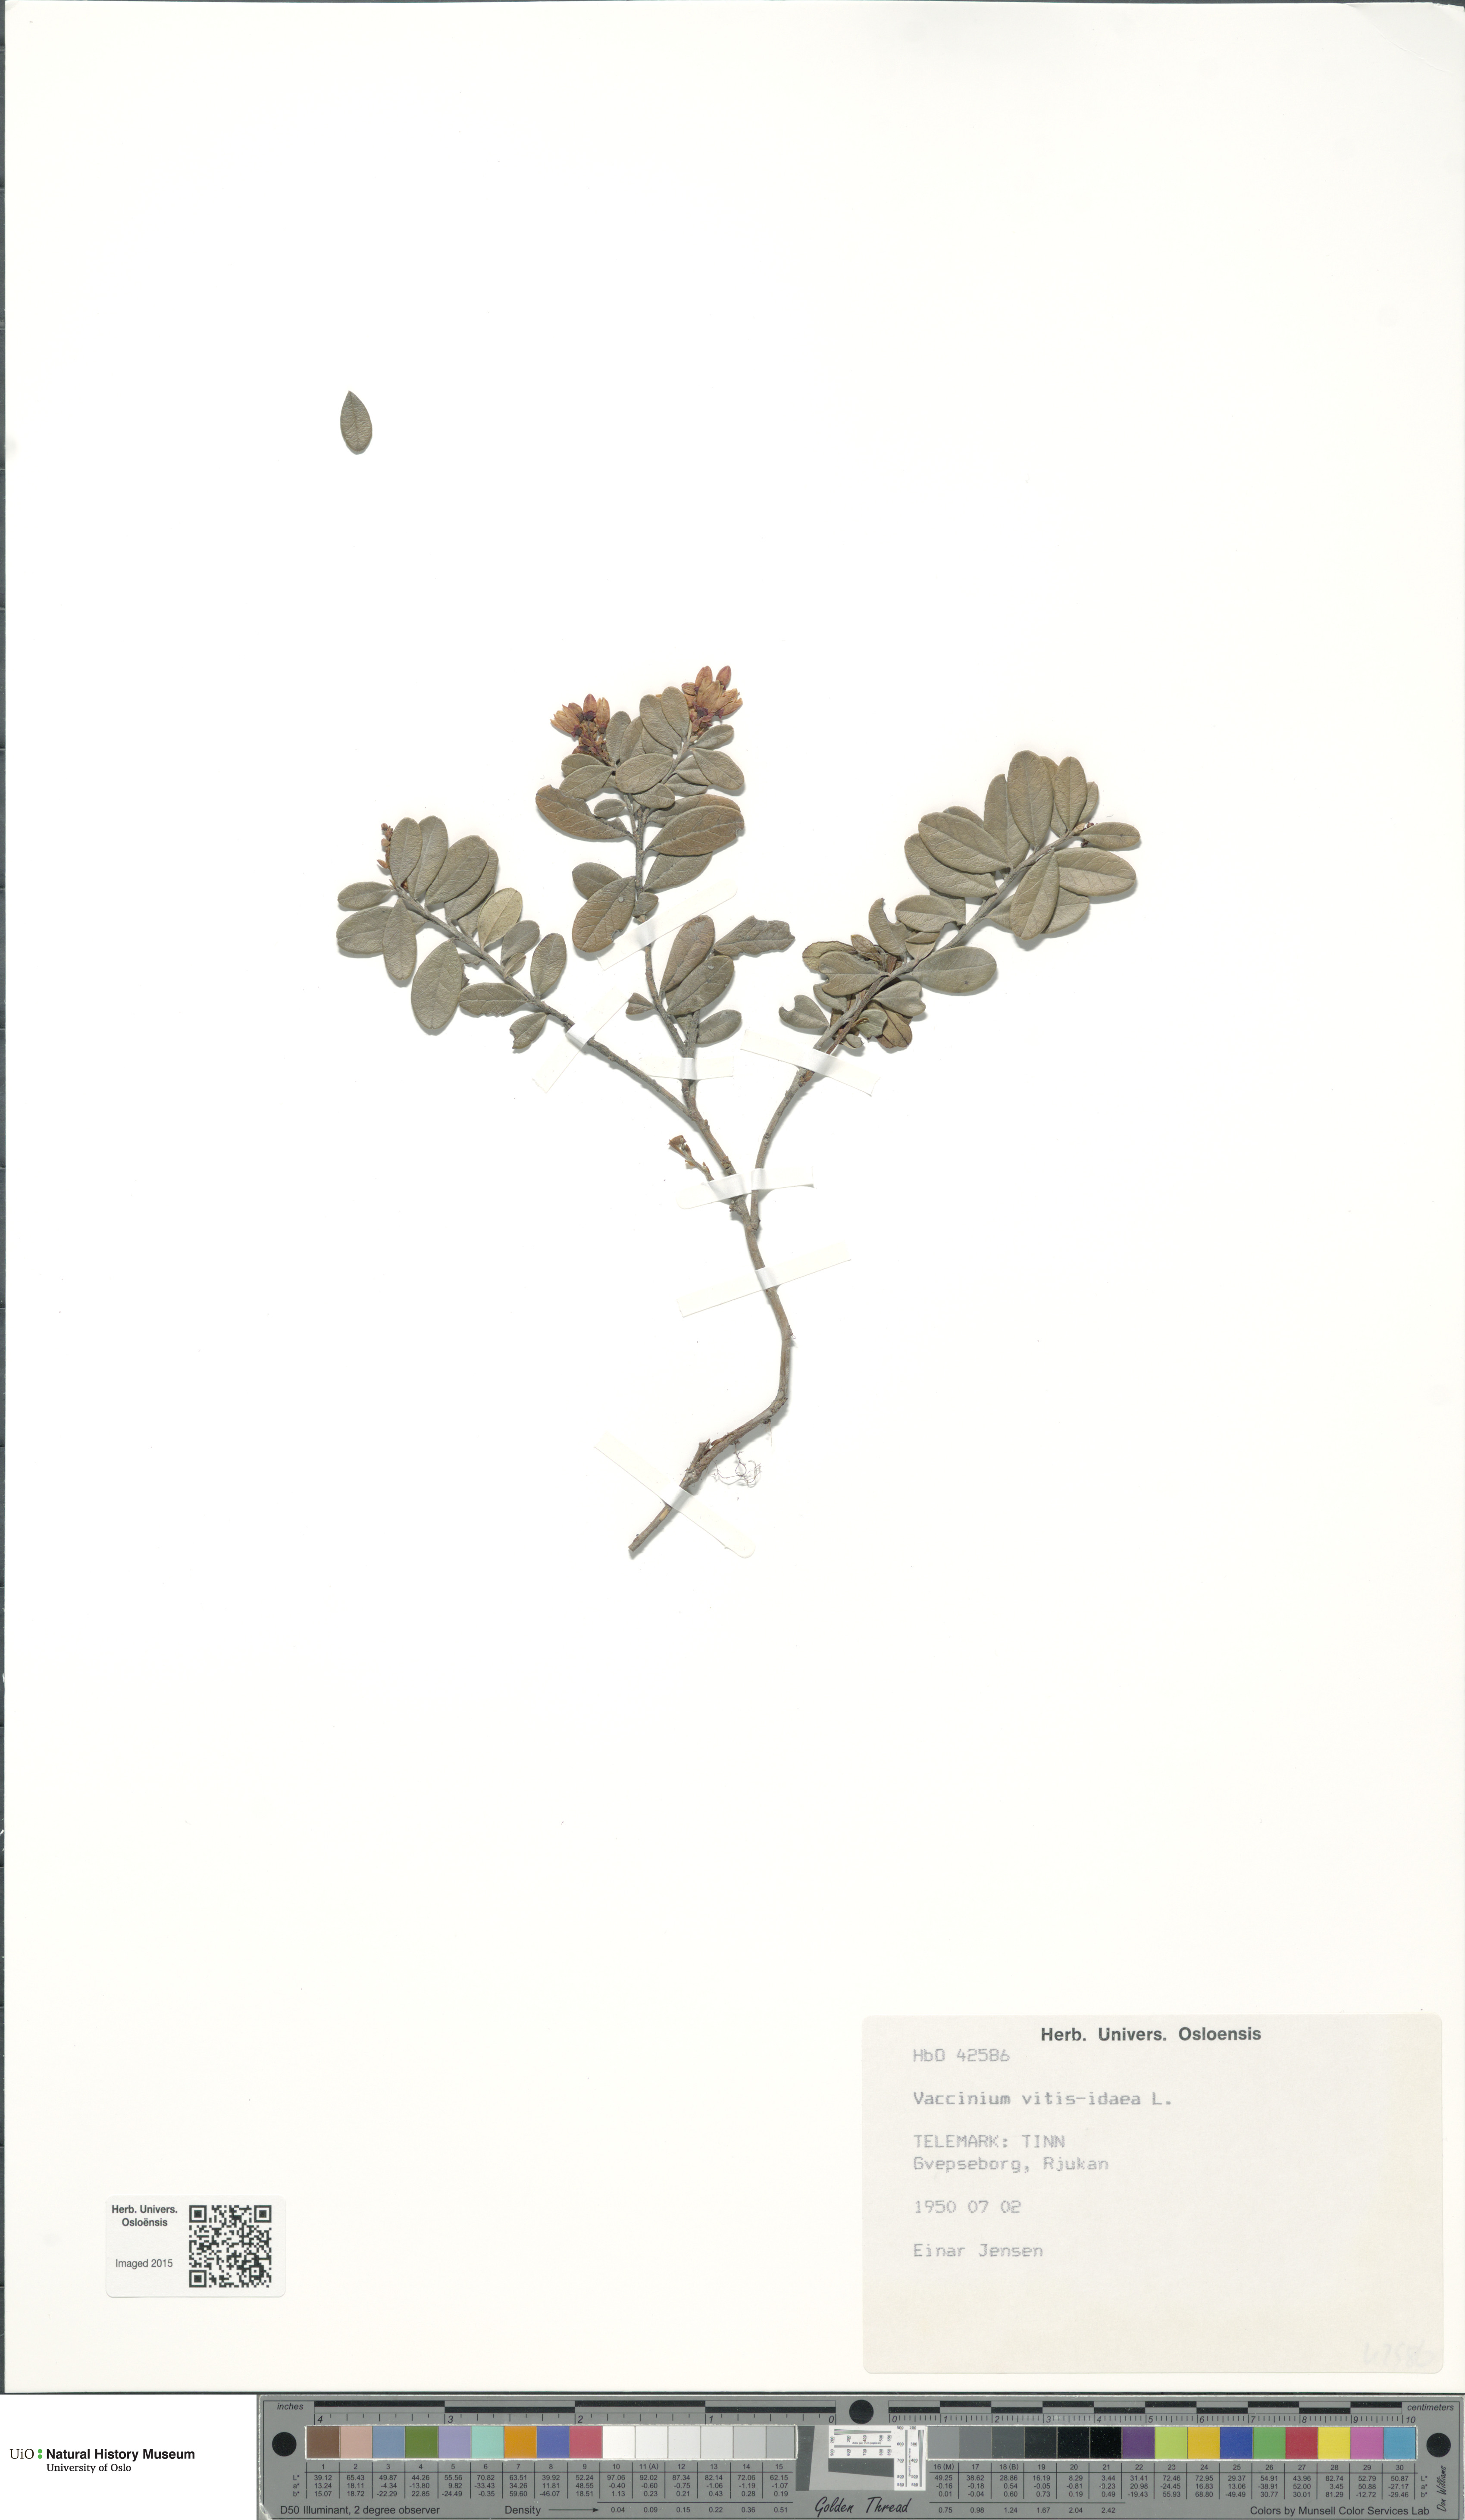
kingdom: Plantae
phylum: Tracheophyta
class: Magnoliopsida
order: Ericales
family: Ericaceae
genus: Vaccinium
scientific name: Vaccinium vitis-idaea
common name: Cowberry
